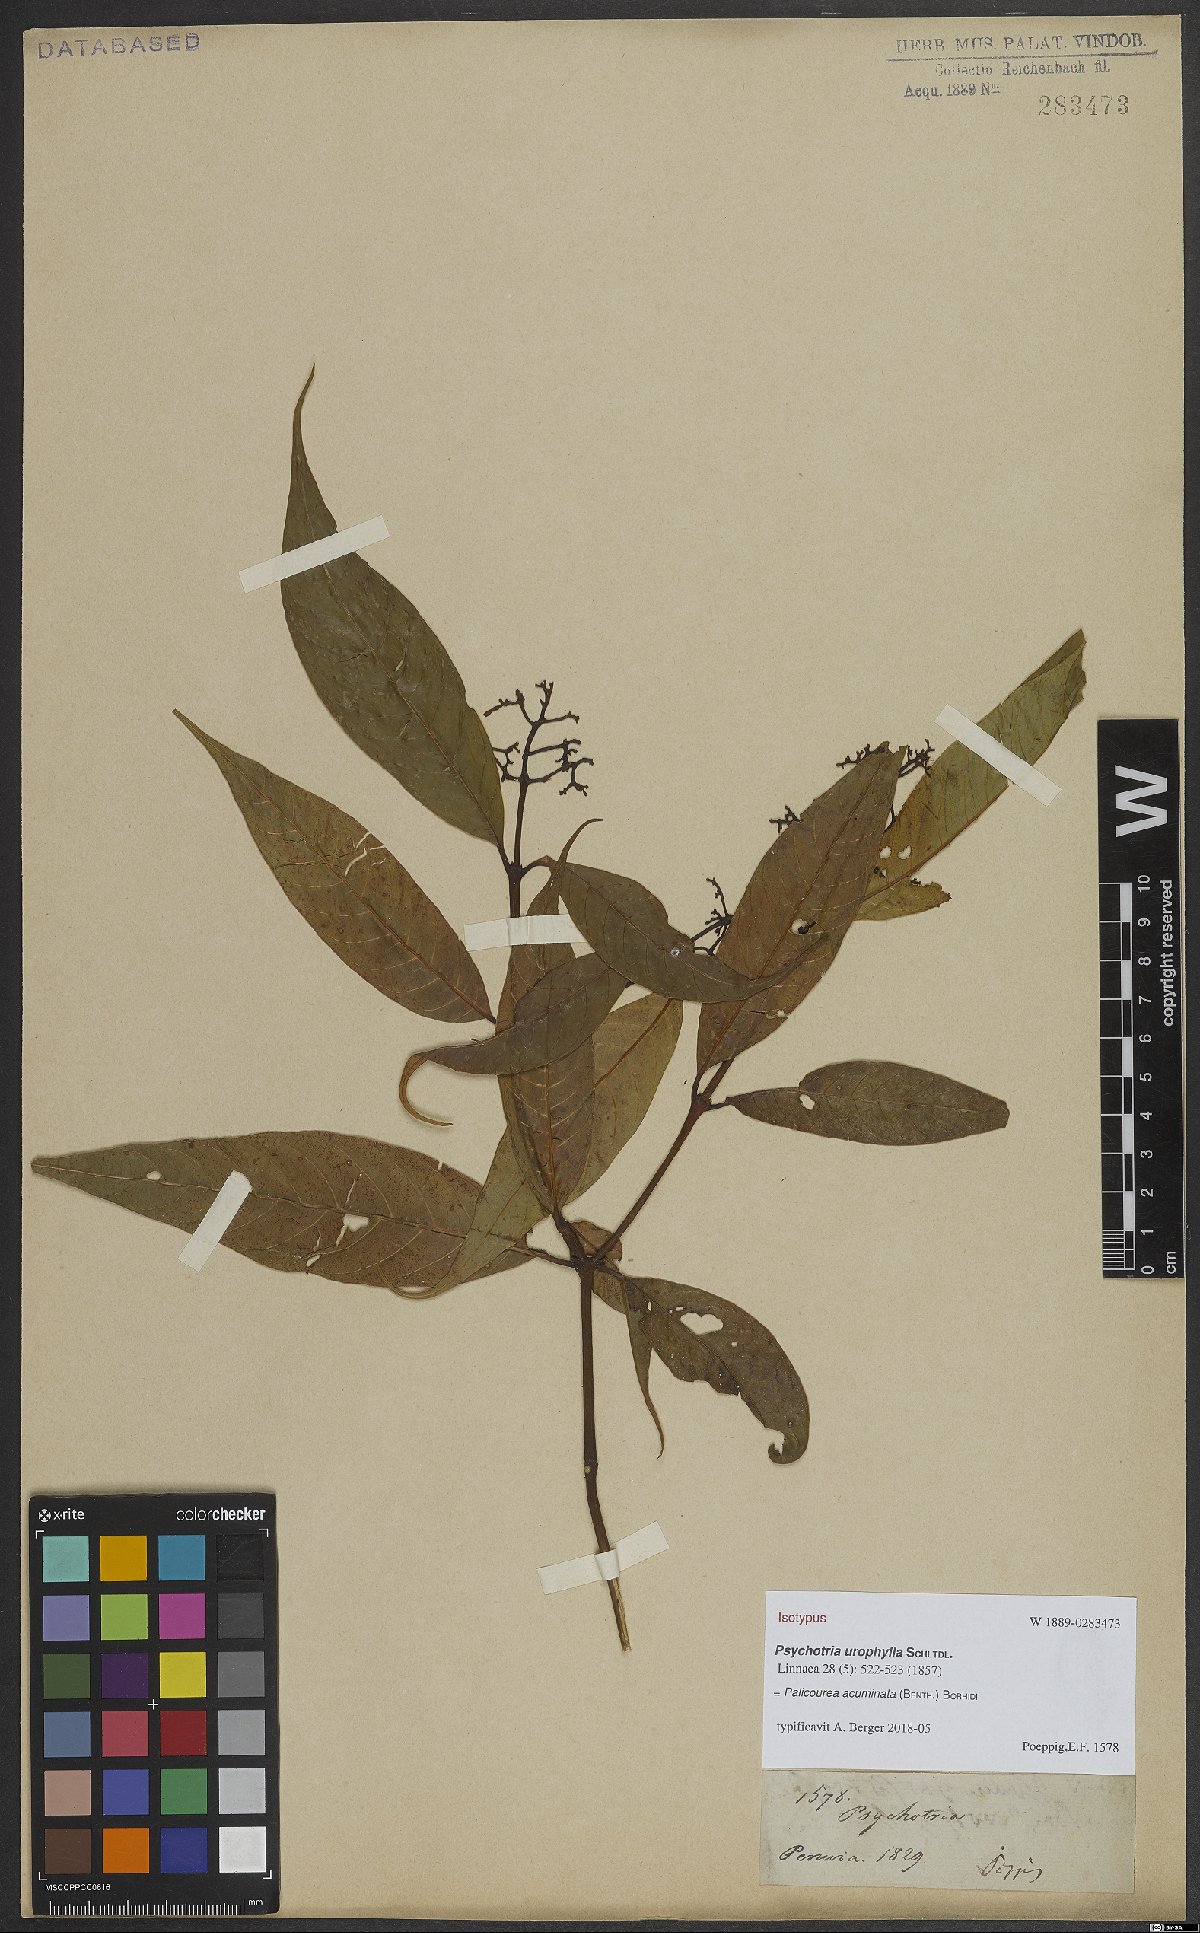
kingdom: Plantae
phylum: Tracheophyta
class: Magnoliopsida
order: Gentianales
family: Rubiaceae
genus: Palicourea
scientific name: Palicourea acuminata
